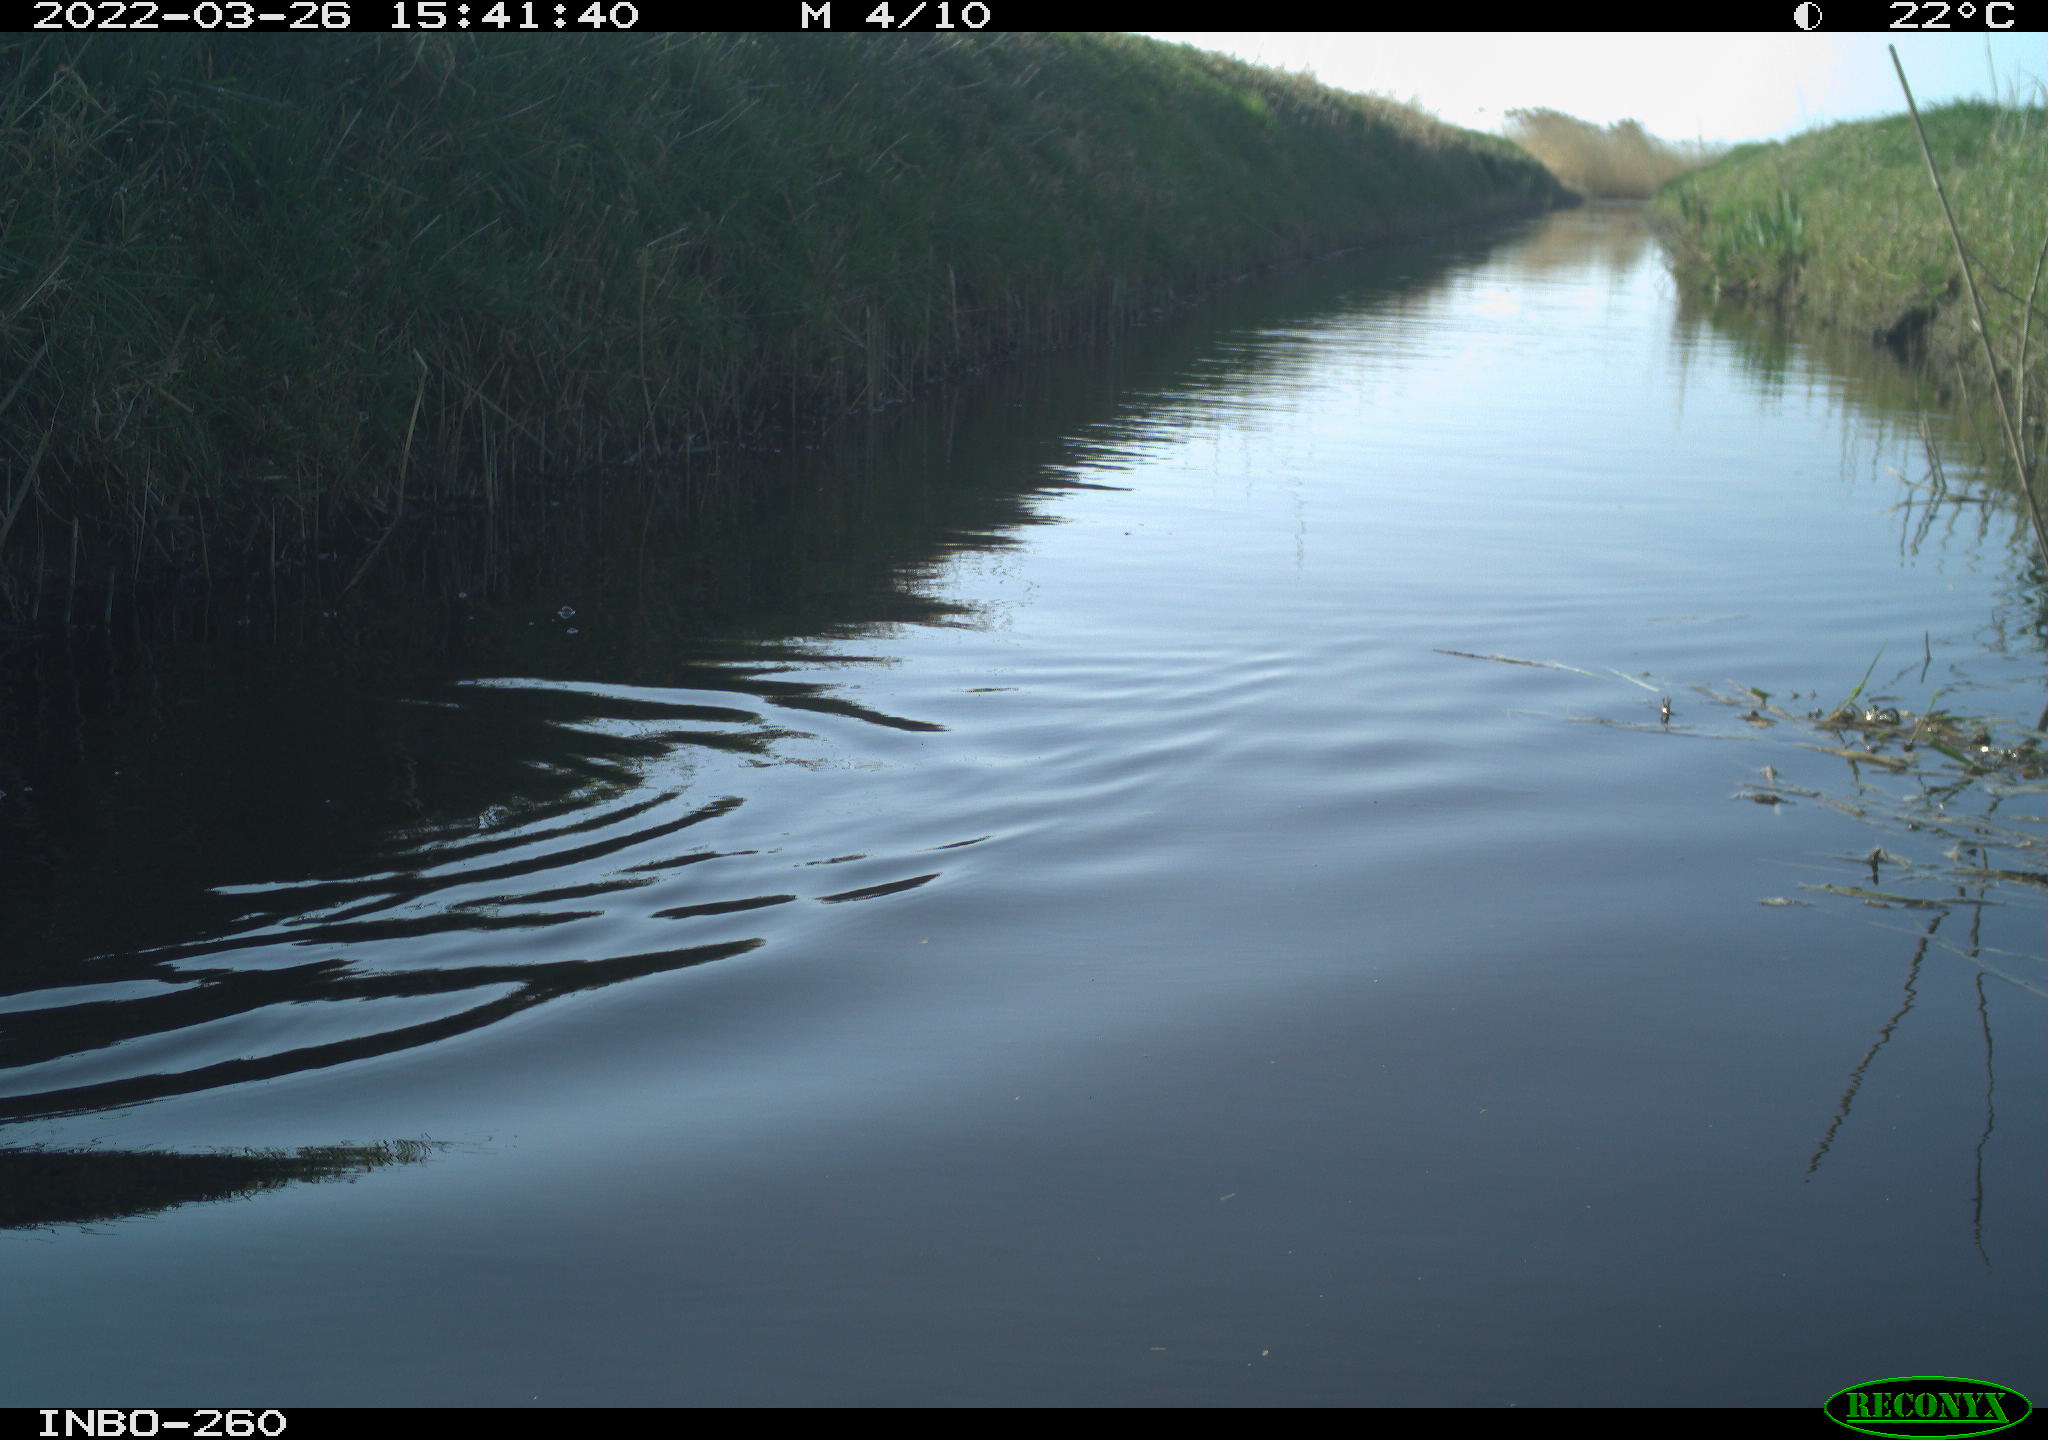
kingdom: Animalia
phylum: Chordata
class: Aves
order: Gruiformes
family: Rallidae
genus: Fulica
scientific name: Fulica atra
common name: Eurasian coot
